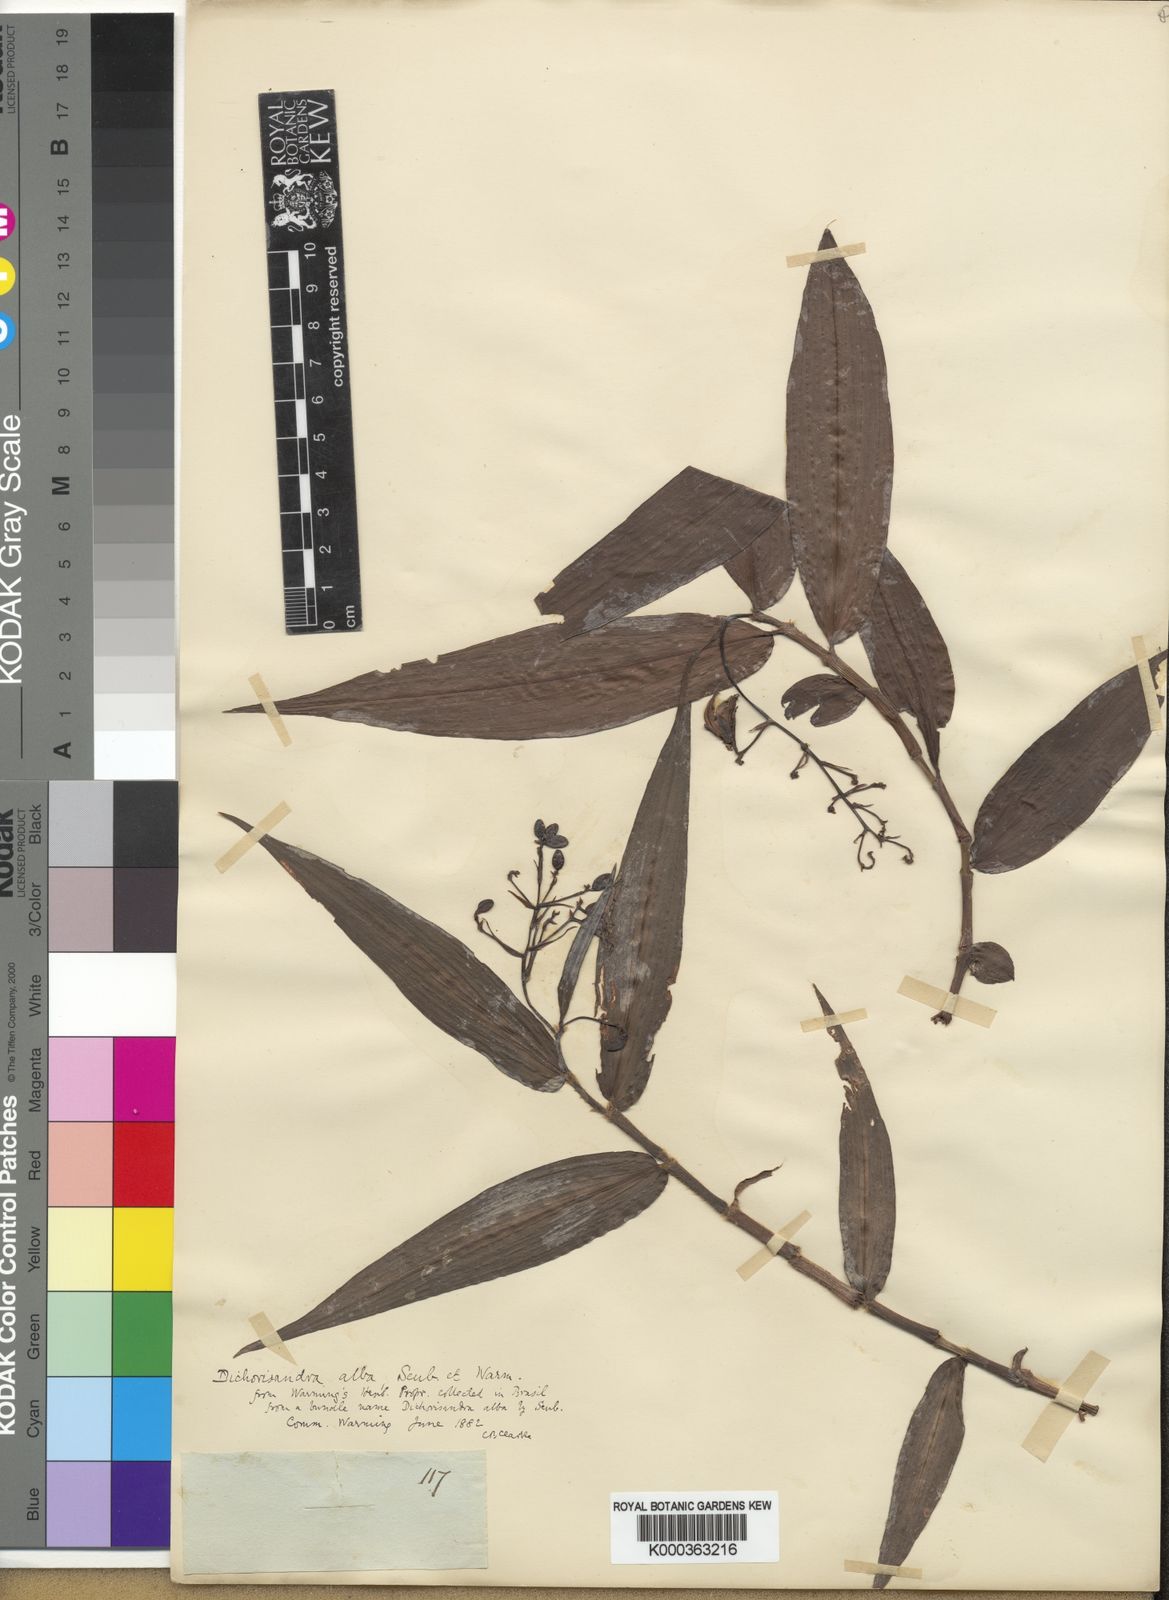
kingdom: Plantae
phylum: Tracheophyta
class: Liliopsida
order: Commelinales
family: Commelinaceae
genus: Dichorisandra
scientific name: Dichorisandra alba
